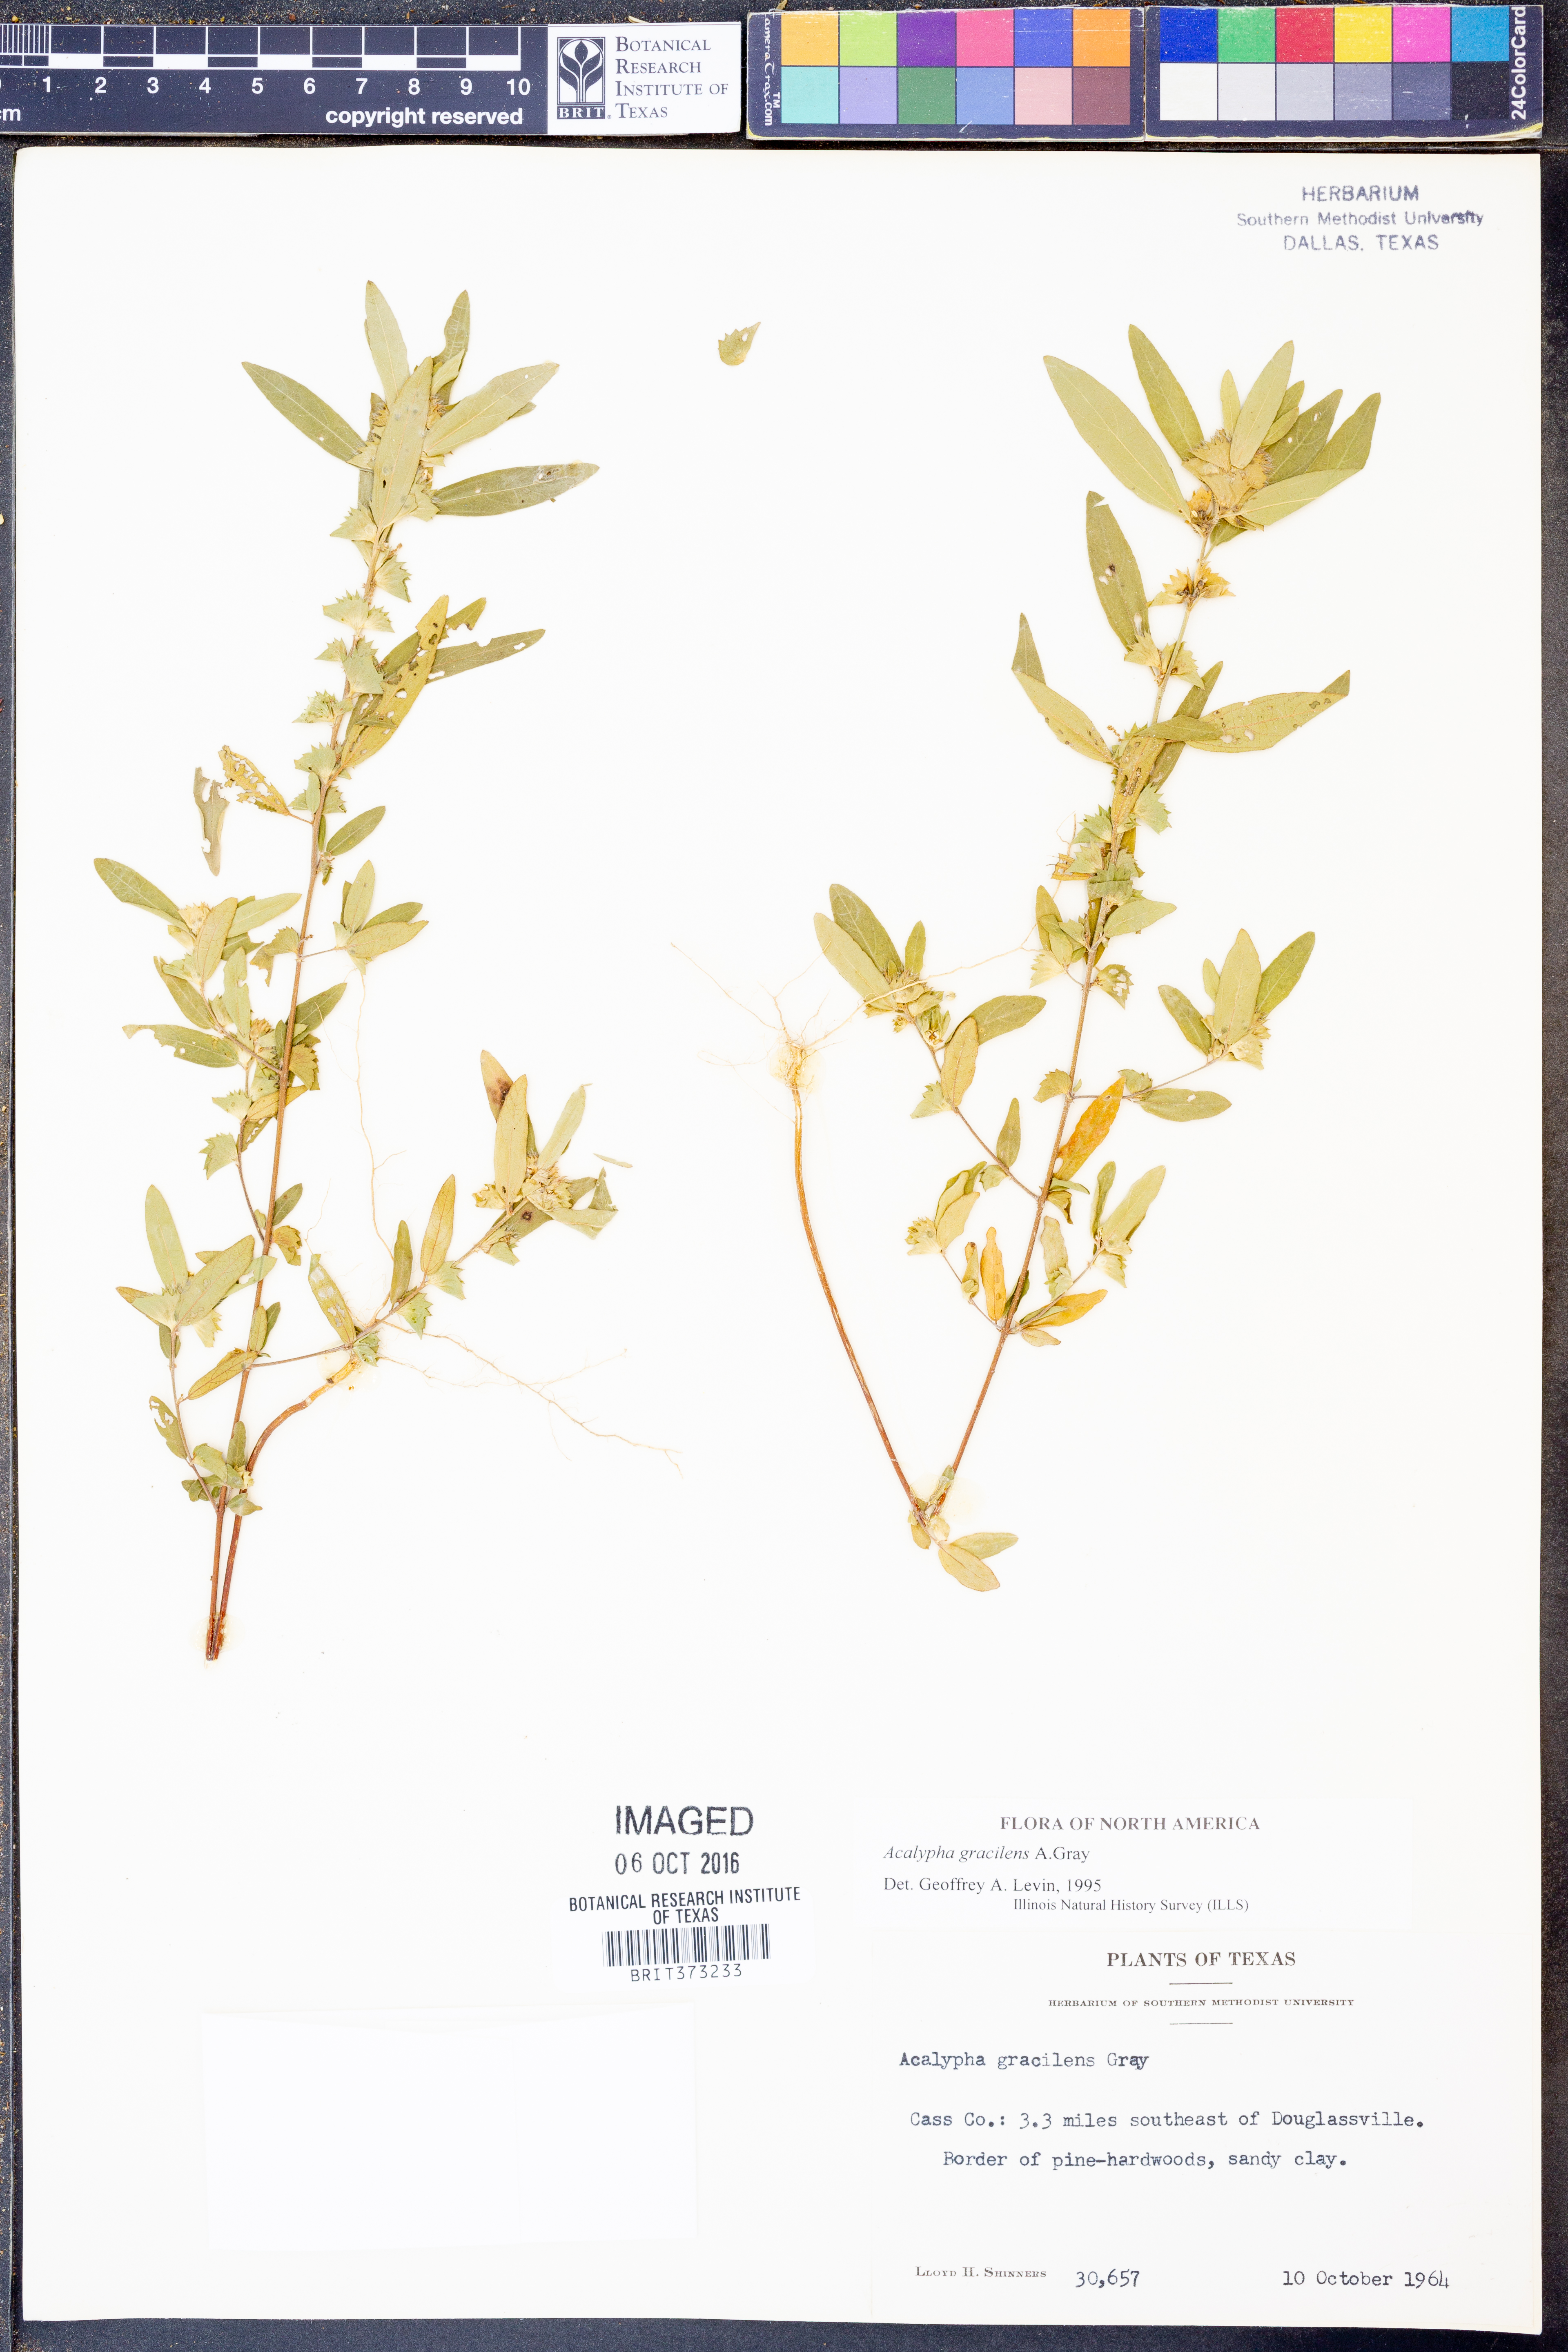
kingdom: Plantae
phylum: Tracheophyta
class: Magnoliopsida
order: Malpighiales
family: Euphorbiaceae
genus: Acalypha
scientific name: Acalypha gracilens
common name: Slender three-seeded mercury
